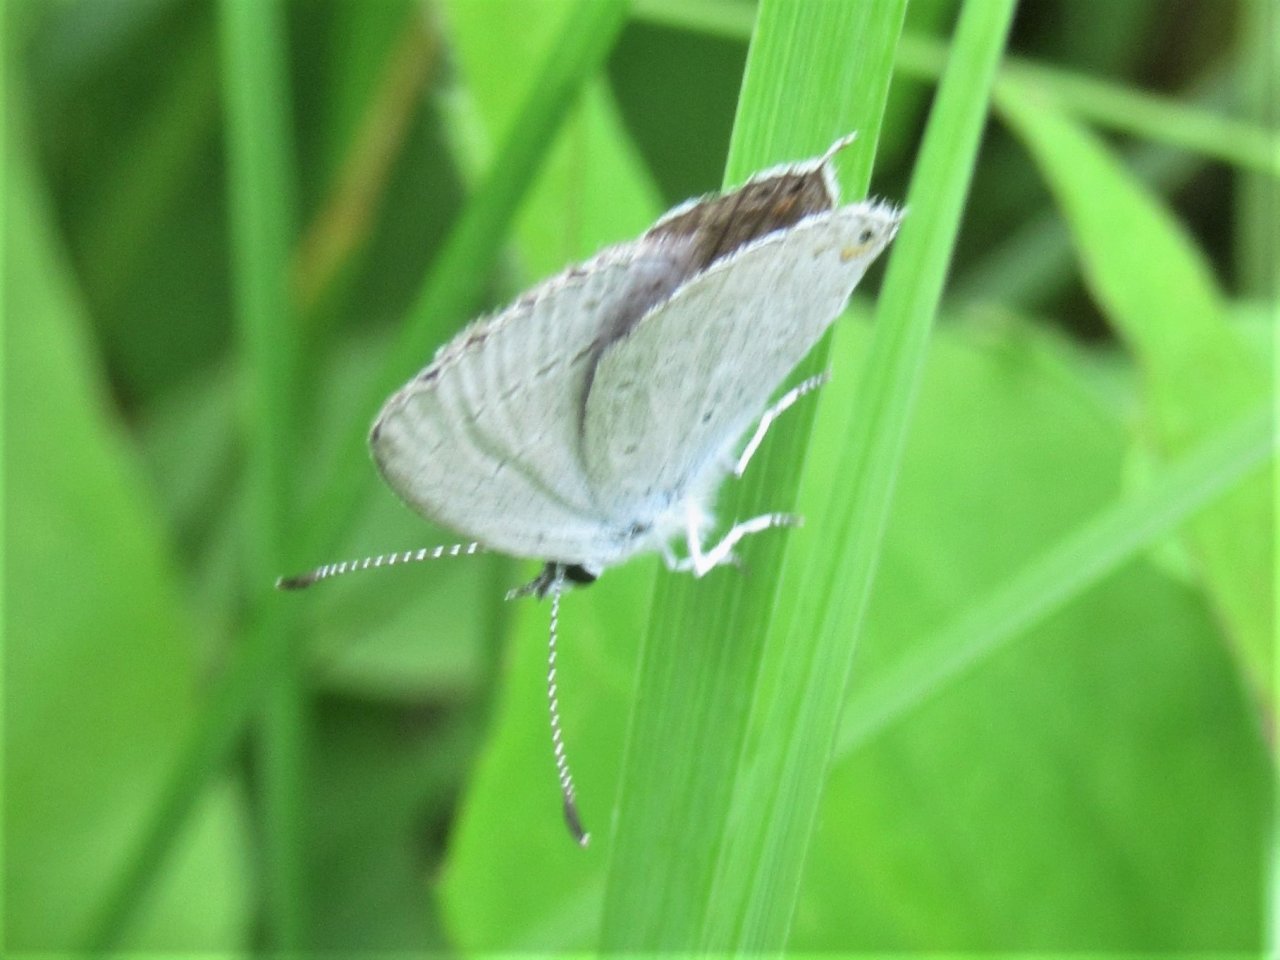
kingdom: Animalia
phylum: Arthropoda
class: Insecta
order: Lepidoptera
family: Lycaenidae
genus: Plebejus
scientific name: Plebejus saepiolus
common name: Greenish Blue
